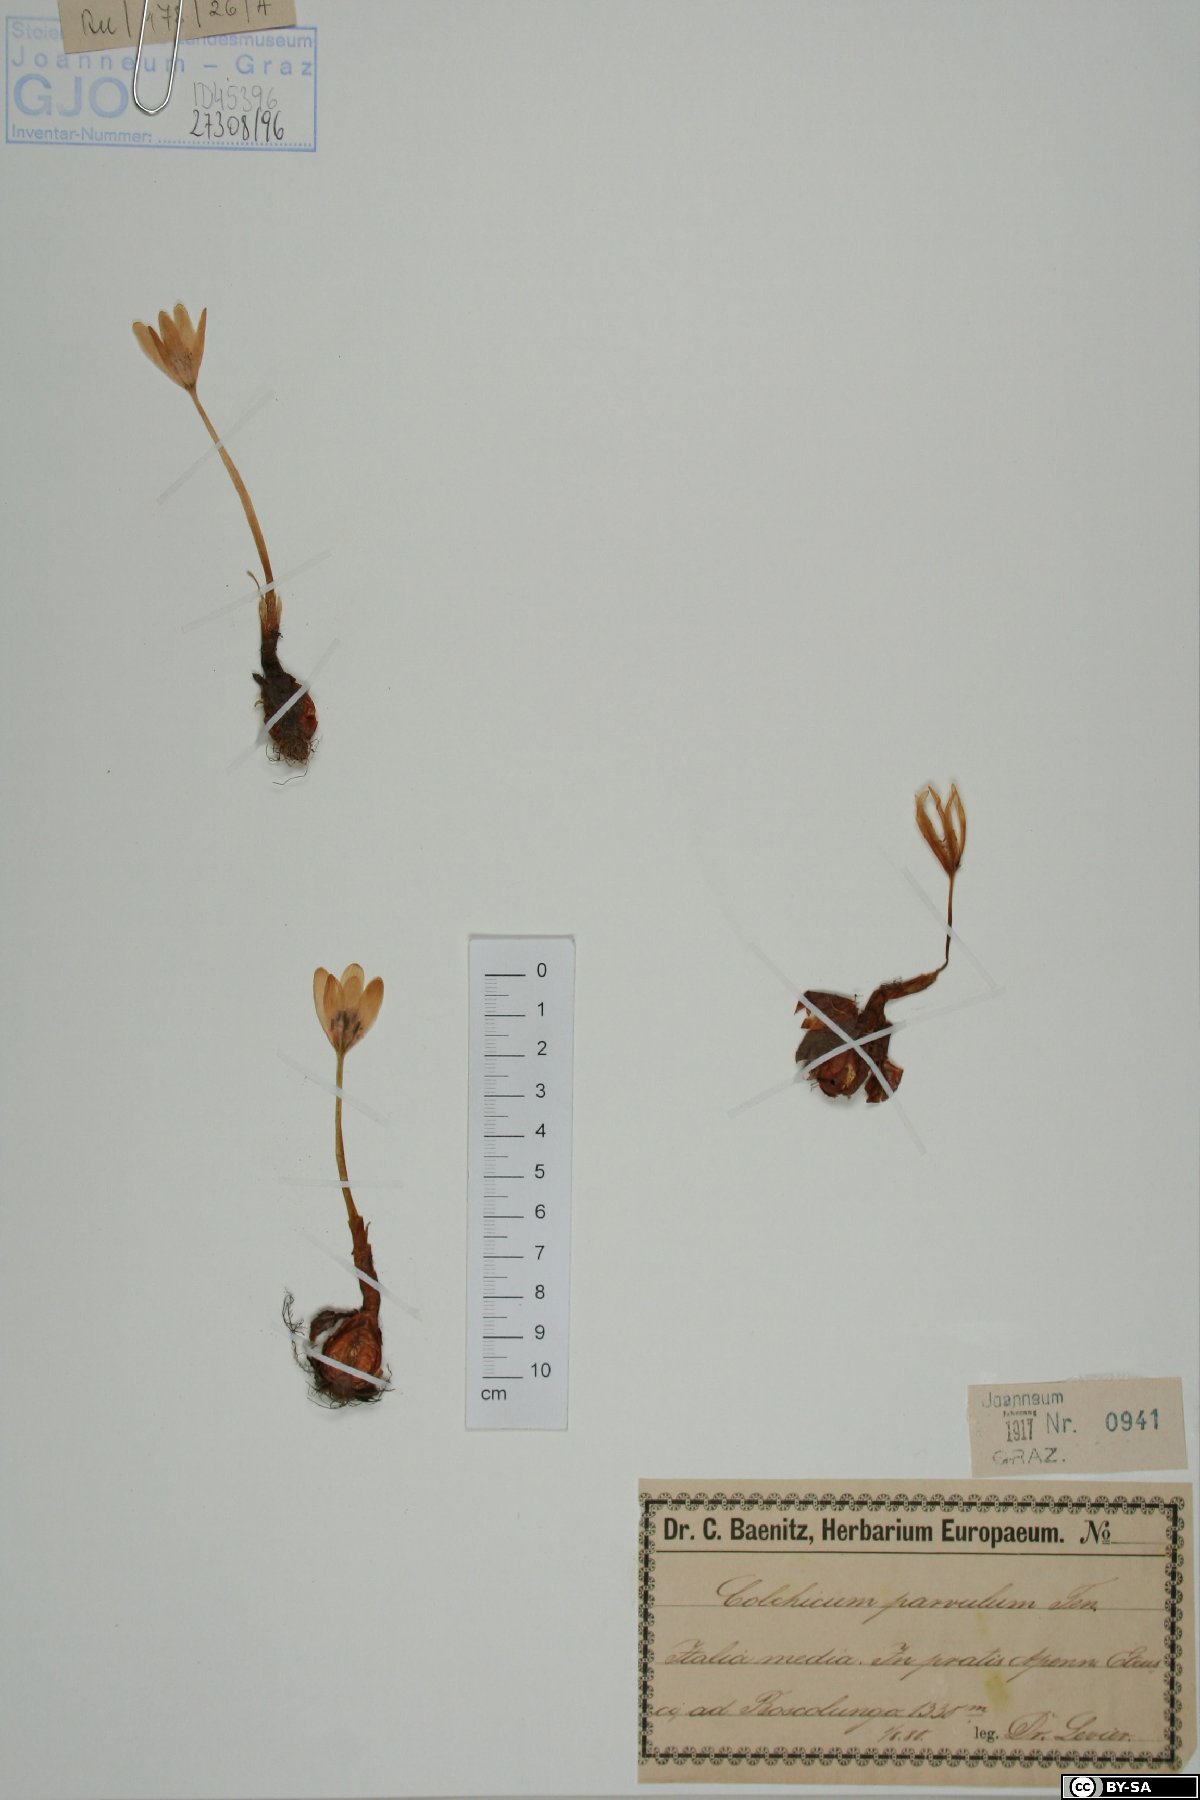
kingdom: Plantae
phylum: Tracheophyta
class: Liliopsida
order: Liliales
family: Colchicaceae
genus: Colchicum
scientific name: Colchicum alpinum
